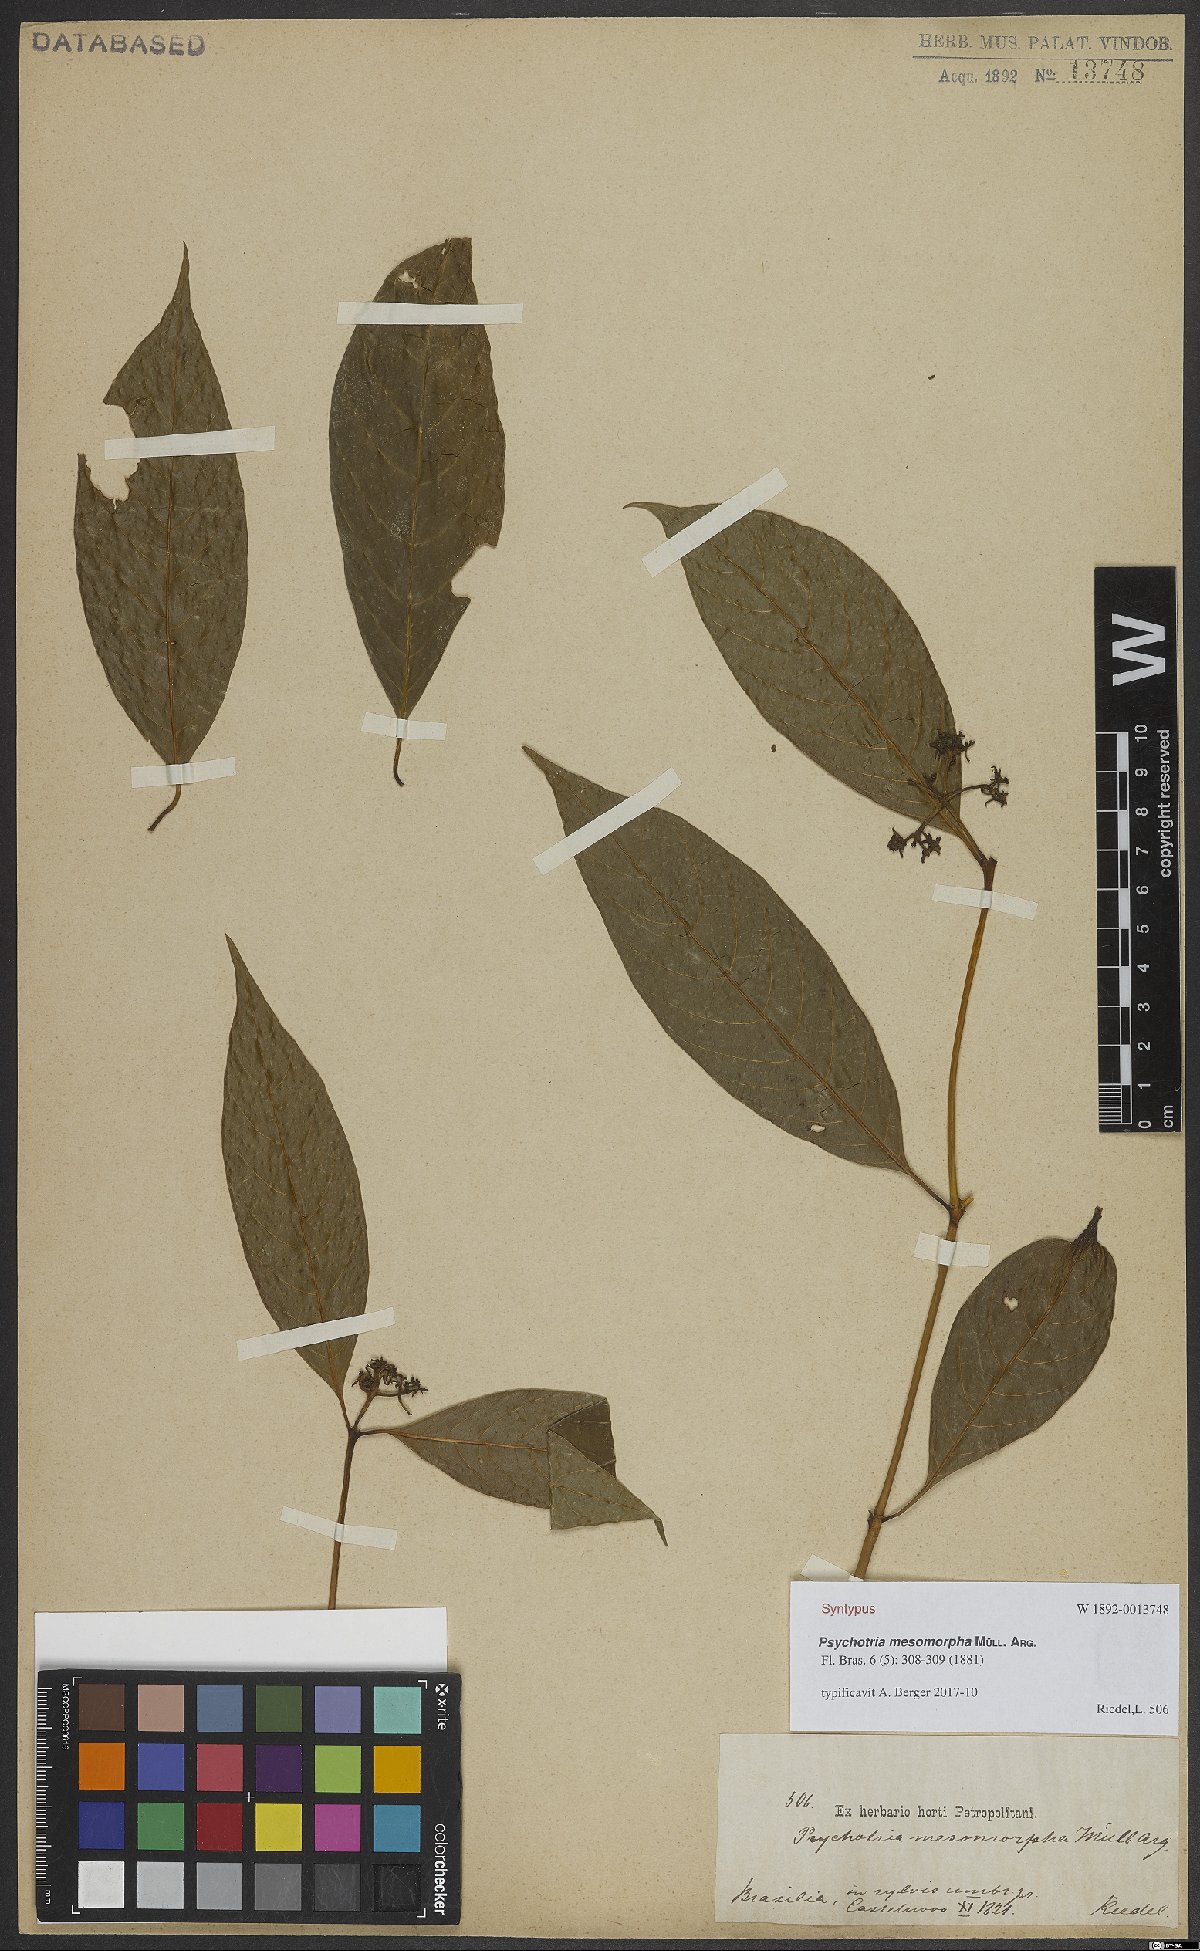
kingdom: Plantae
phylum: Tracheophyta
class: Magnoliopsida
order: Gentianales
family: Rubiaceae
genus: Palicourea
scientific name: Palicourea tenerior
